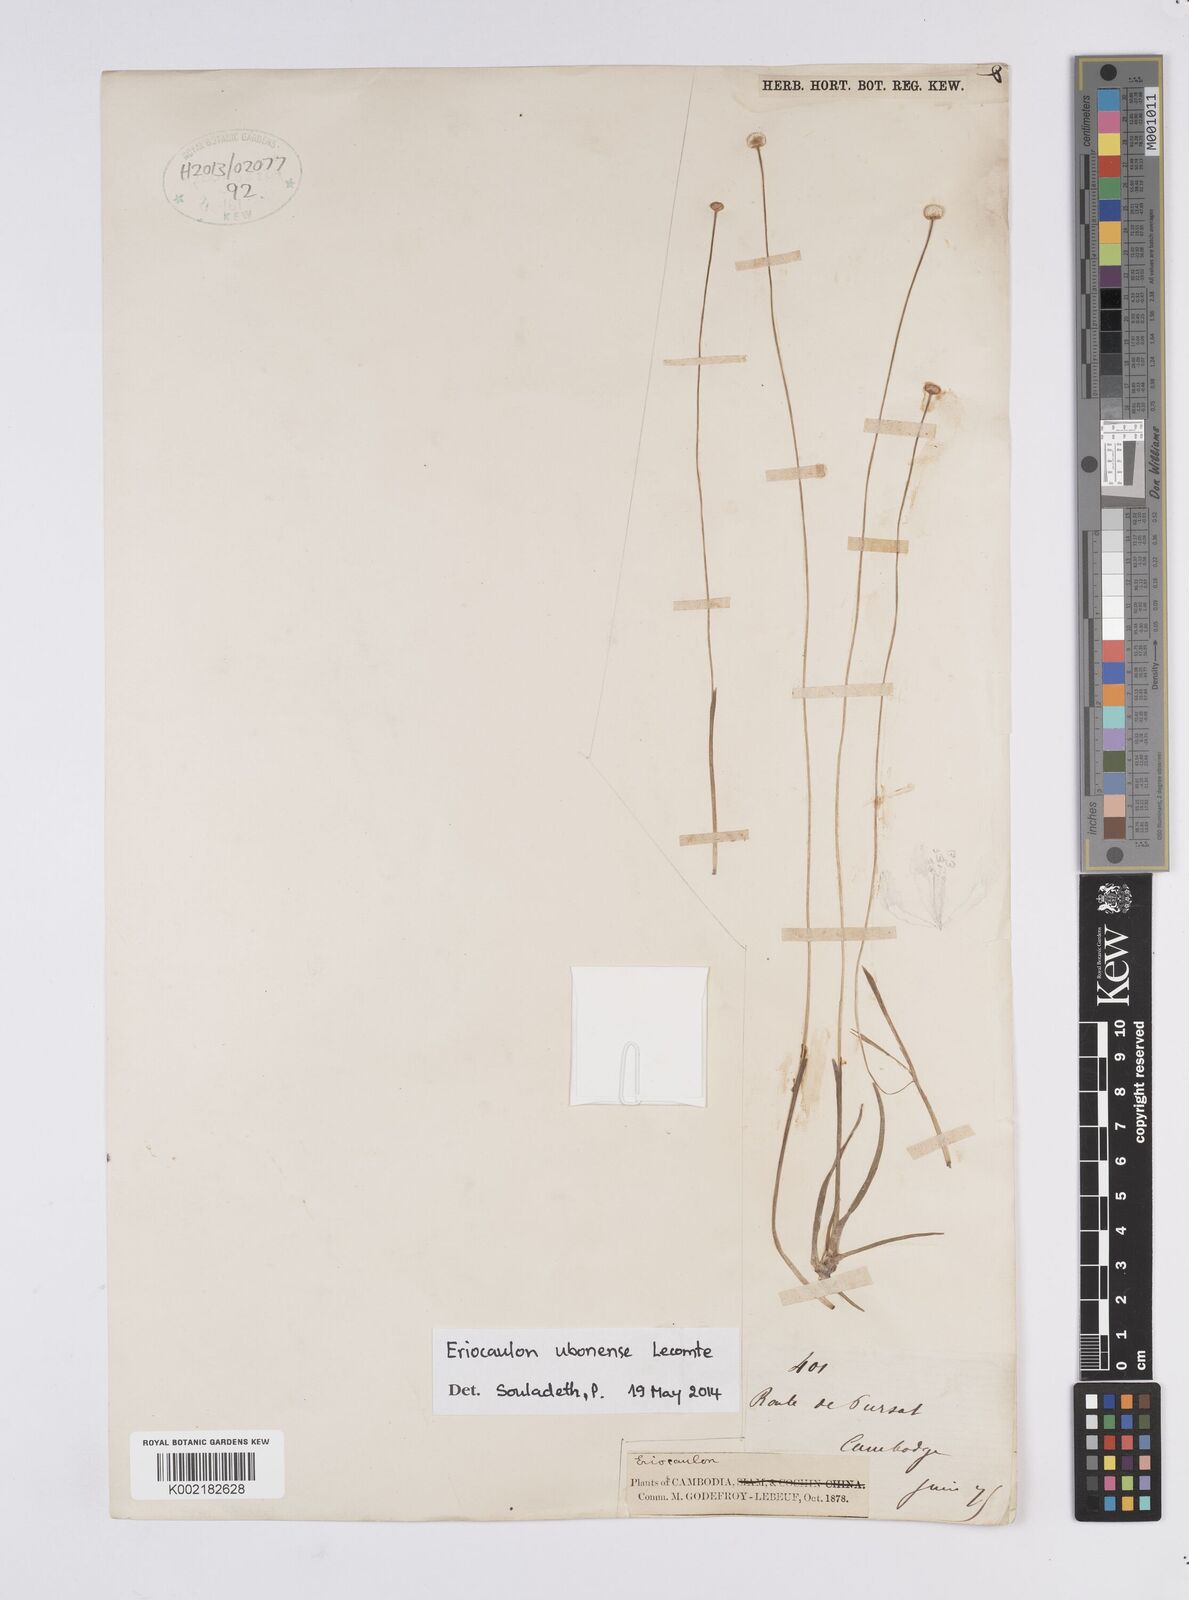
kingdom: Plantae
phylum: Tracheophyta
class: Liliopsida
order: Poales
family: Eriocaulaceae
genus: Eriocaulon
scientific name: Eriocaulon ubonense
